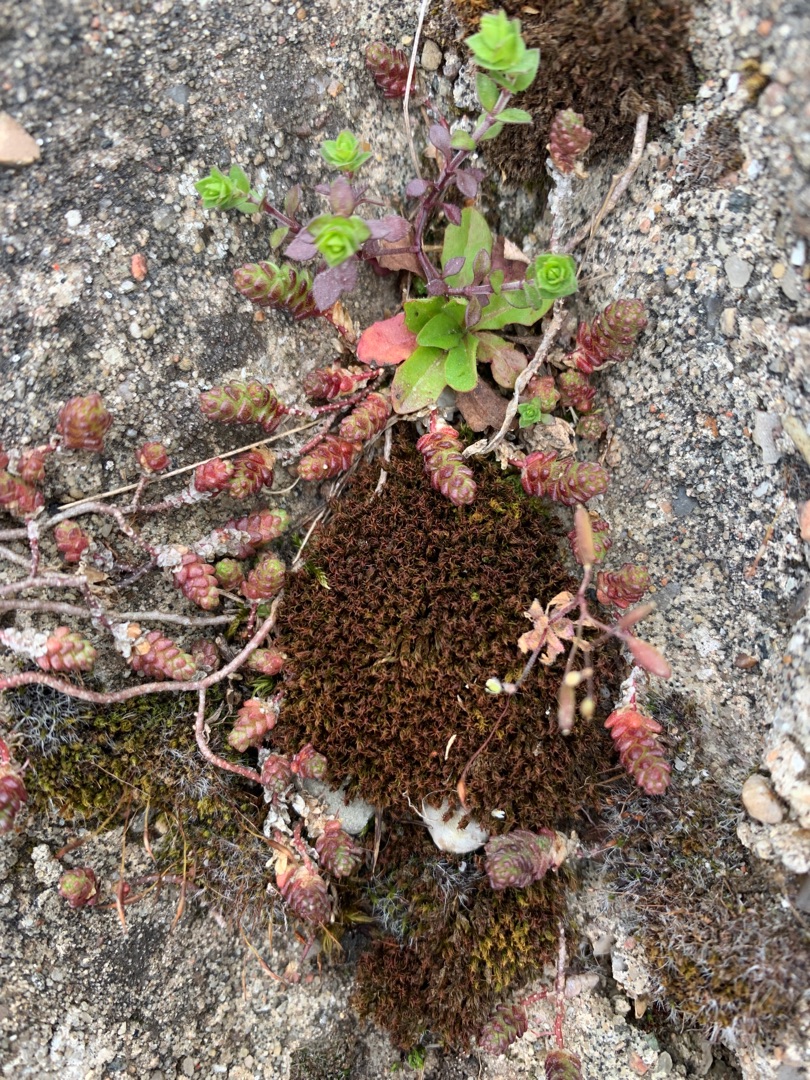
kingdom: Plantae
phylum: Tracheophyta
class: Magnoliopsida
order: Saxifragales
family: Crassulaceae
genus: Sedum
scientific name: Sedum acre
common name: Bidende stenurt
